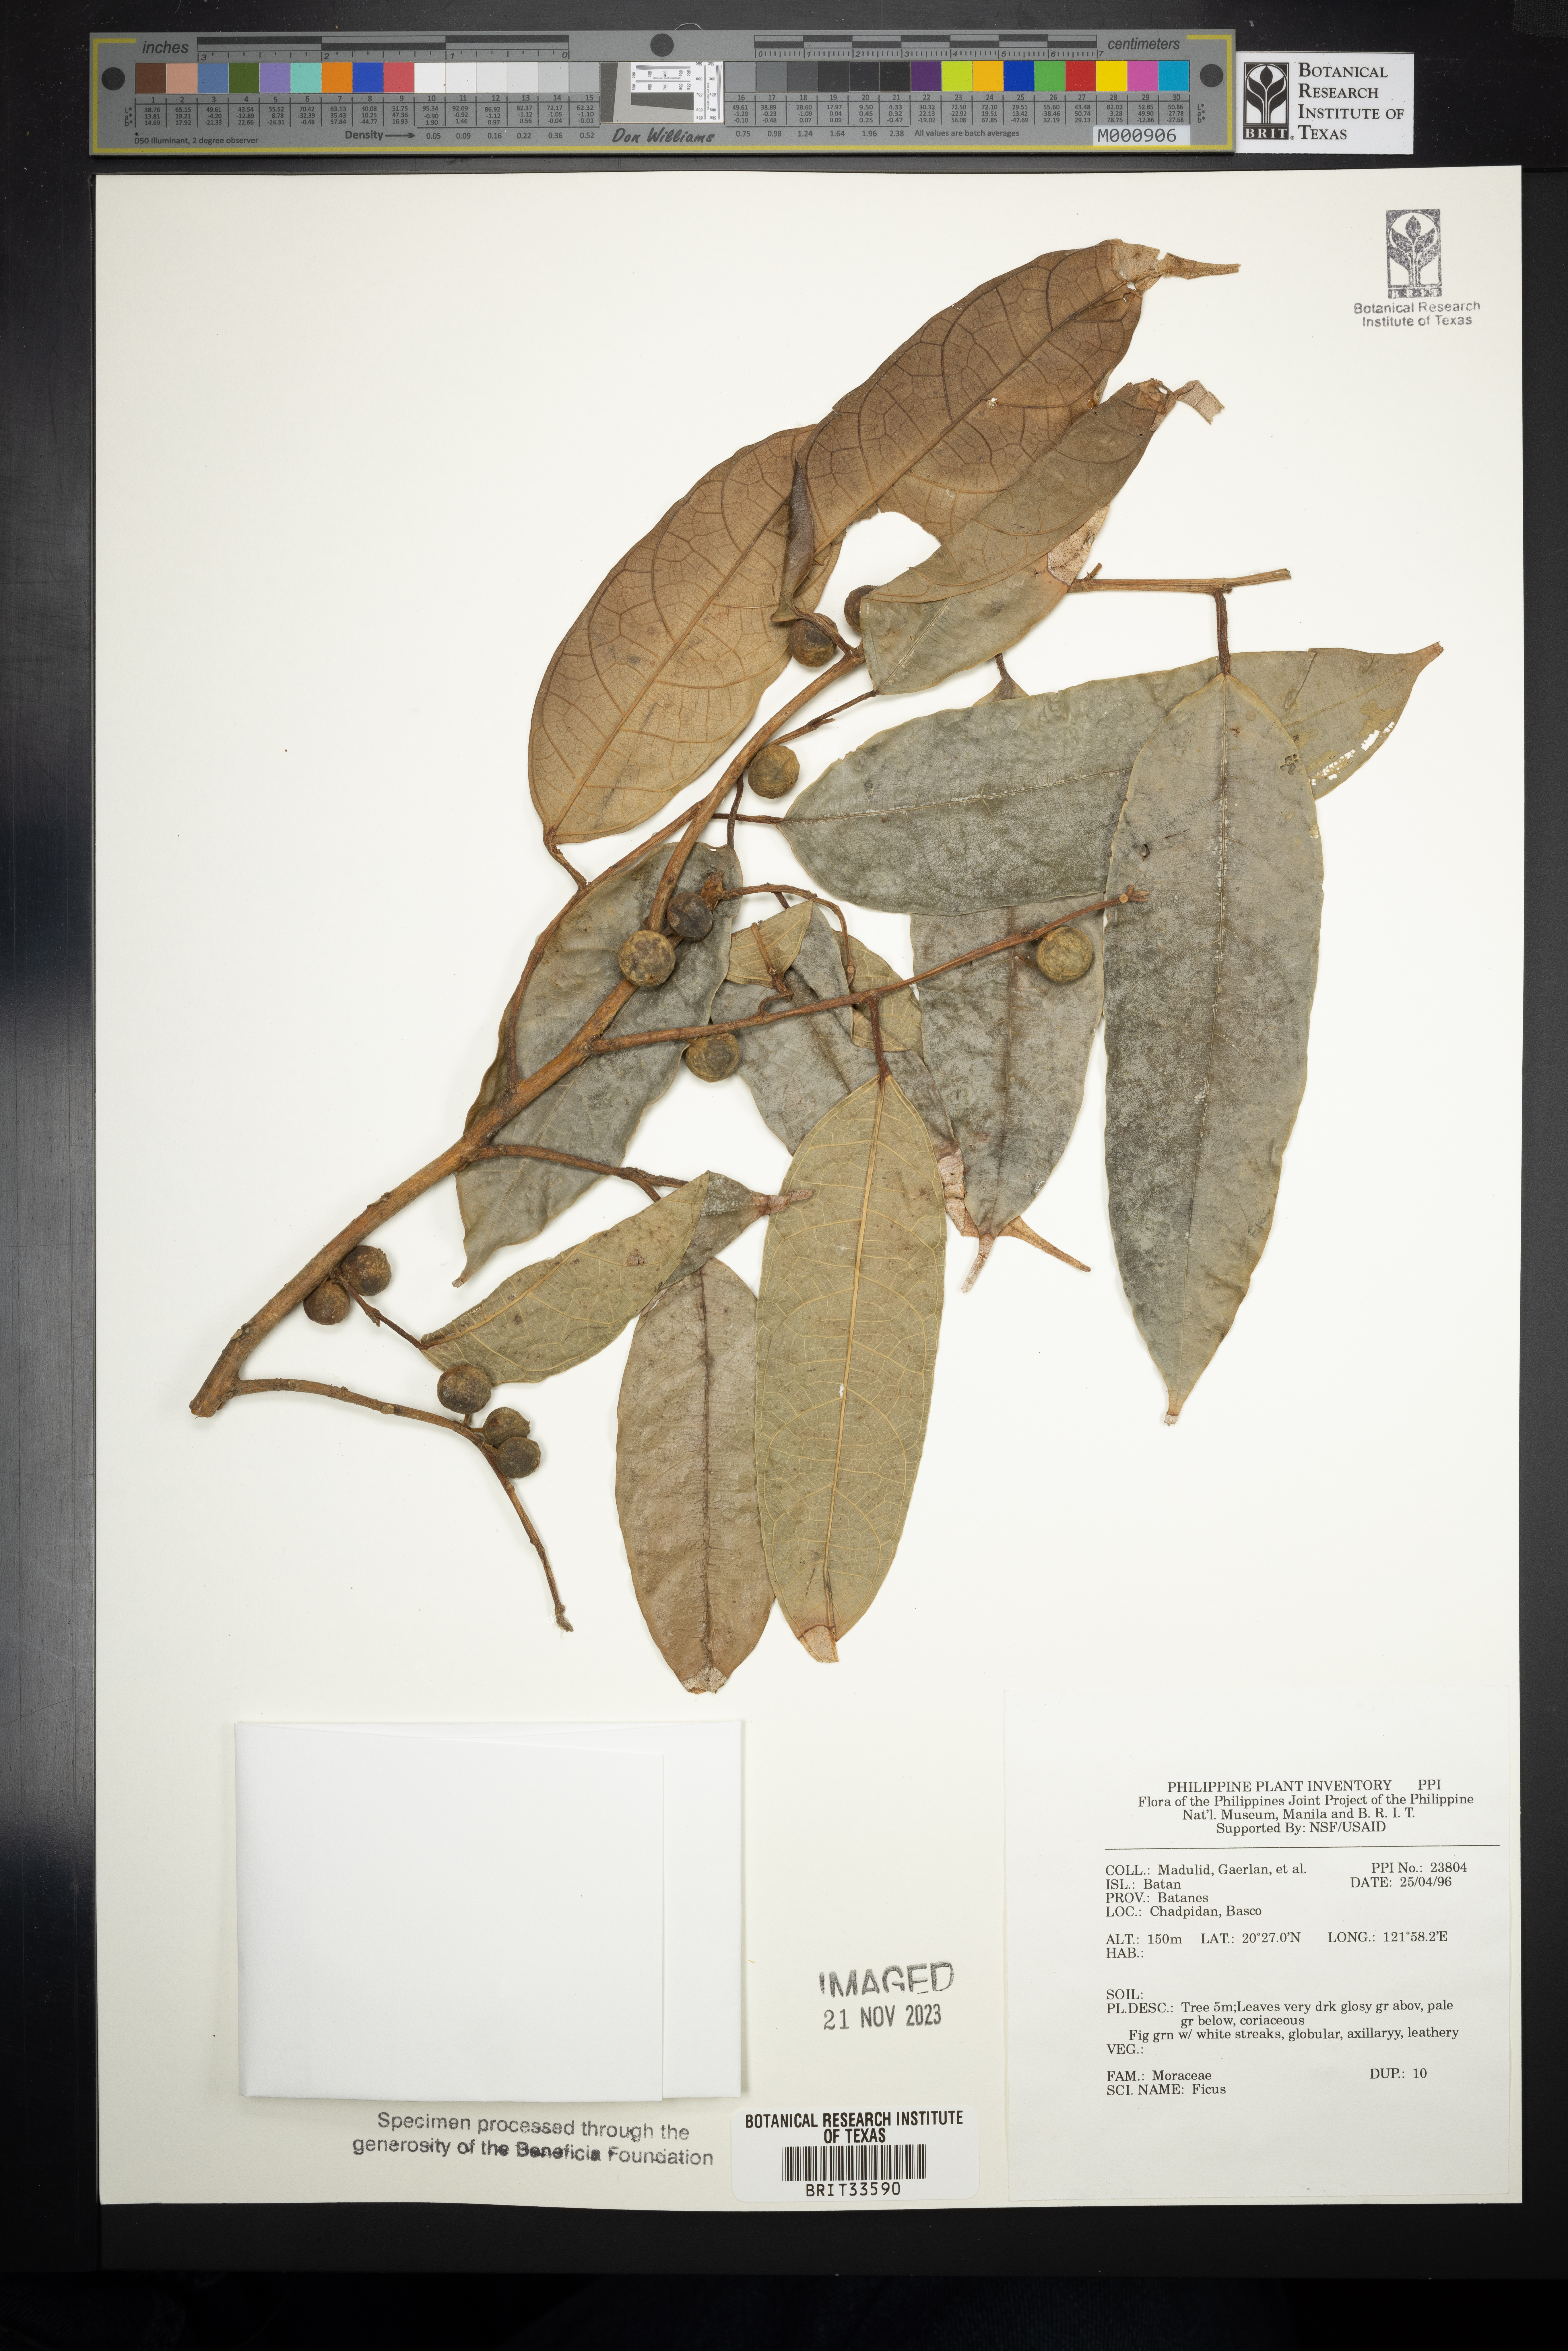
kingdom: Plantae
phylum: Tracheophyta
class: Magnoliopsida
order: Rosales
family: Moraceae
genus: Ficus
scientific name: Ficus
